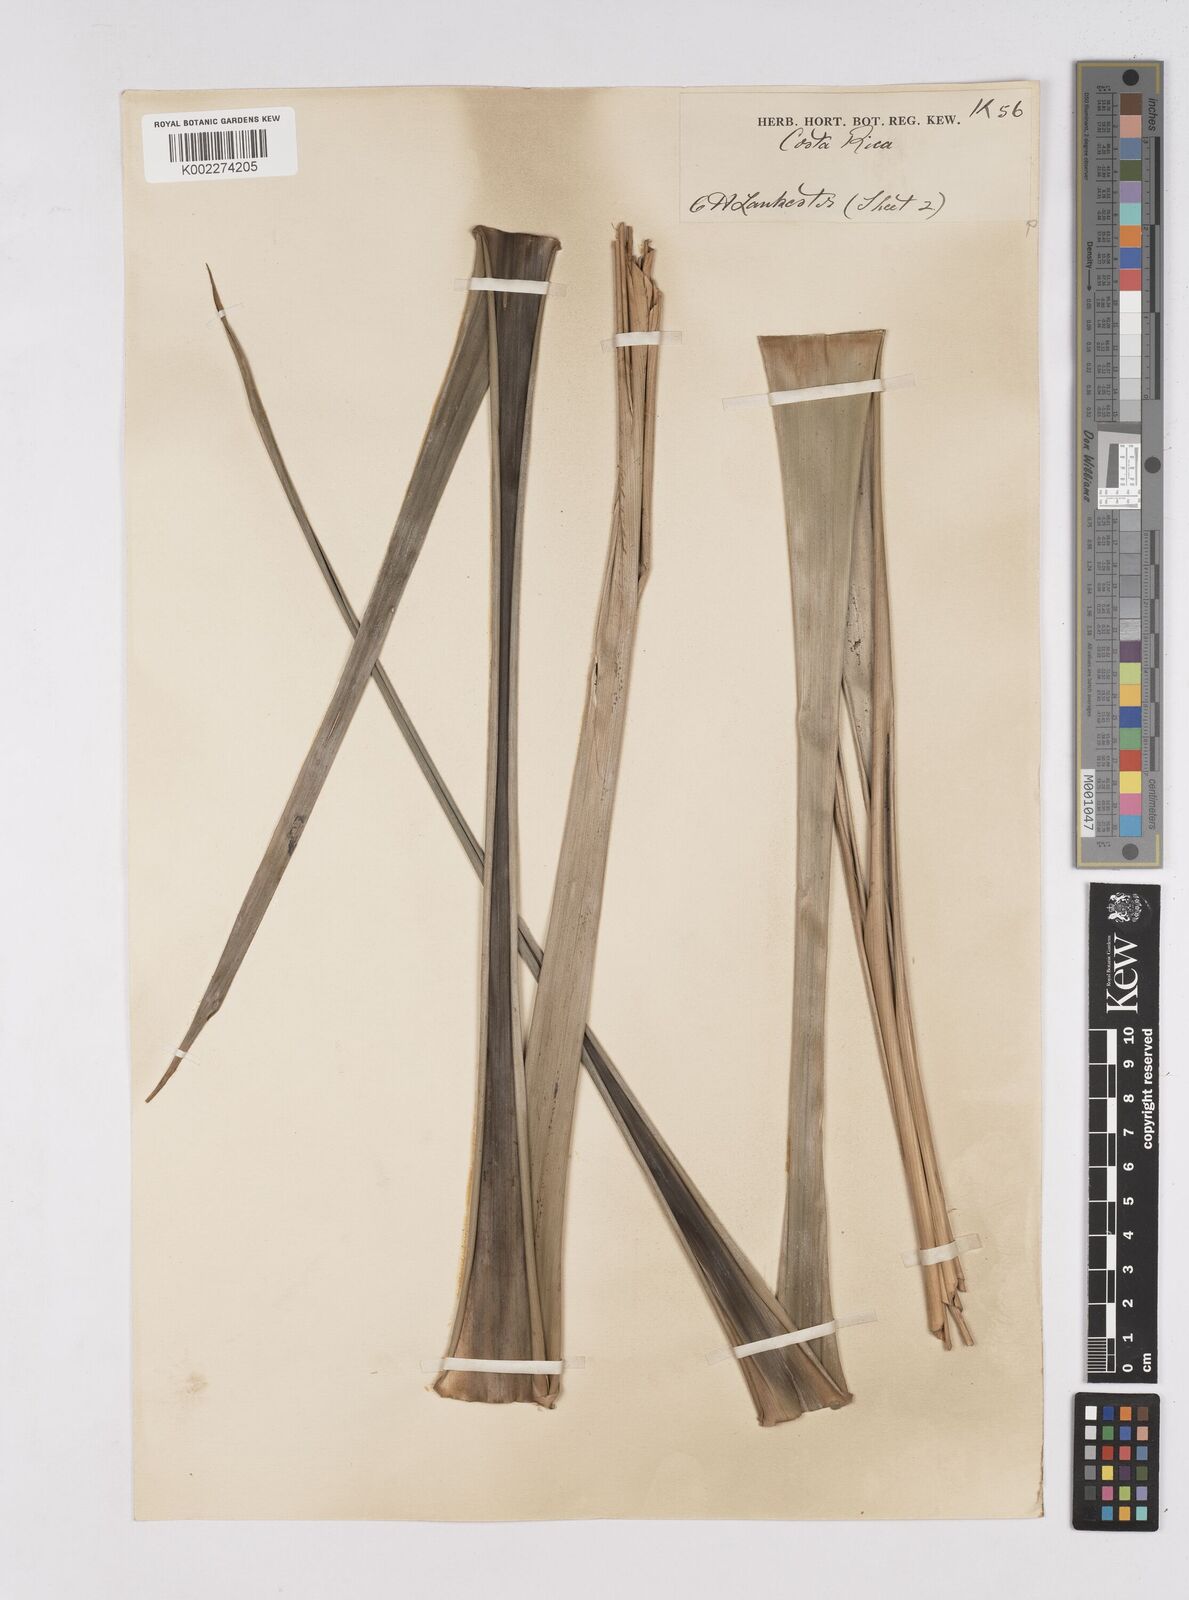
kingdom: Plantae
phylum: Tracheophyta
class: Liliopsida
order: Poales
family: Bromeliaceae
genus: Pitcairnia
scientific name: Pitcairnia
